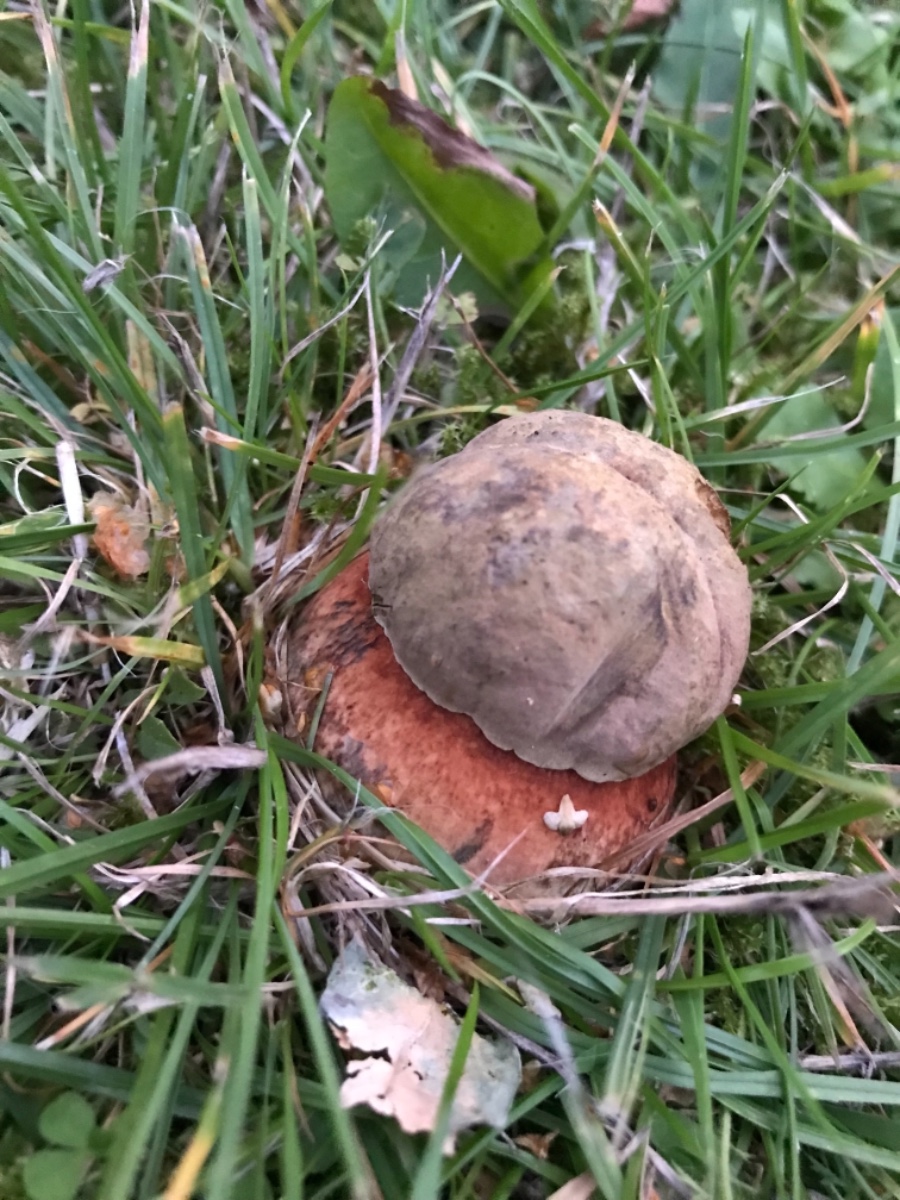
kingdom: Fungi
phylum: Basidiomycota
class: Agaricomycetes
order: Boletales
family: Boletaceae
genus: Suillellus
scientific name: Suillellus luridus
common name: netstokket indigorørhat
